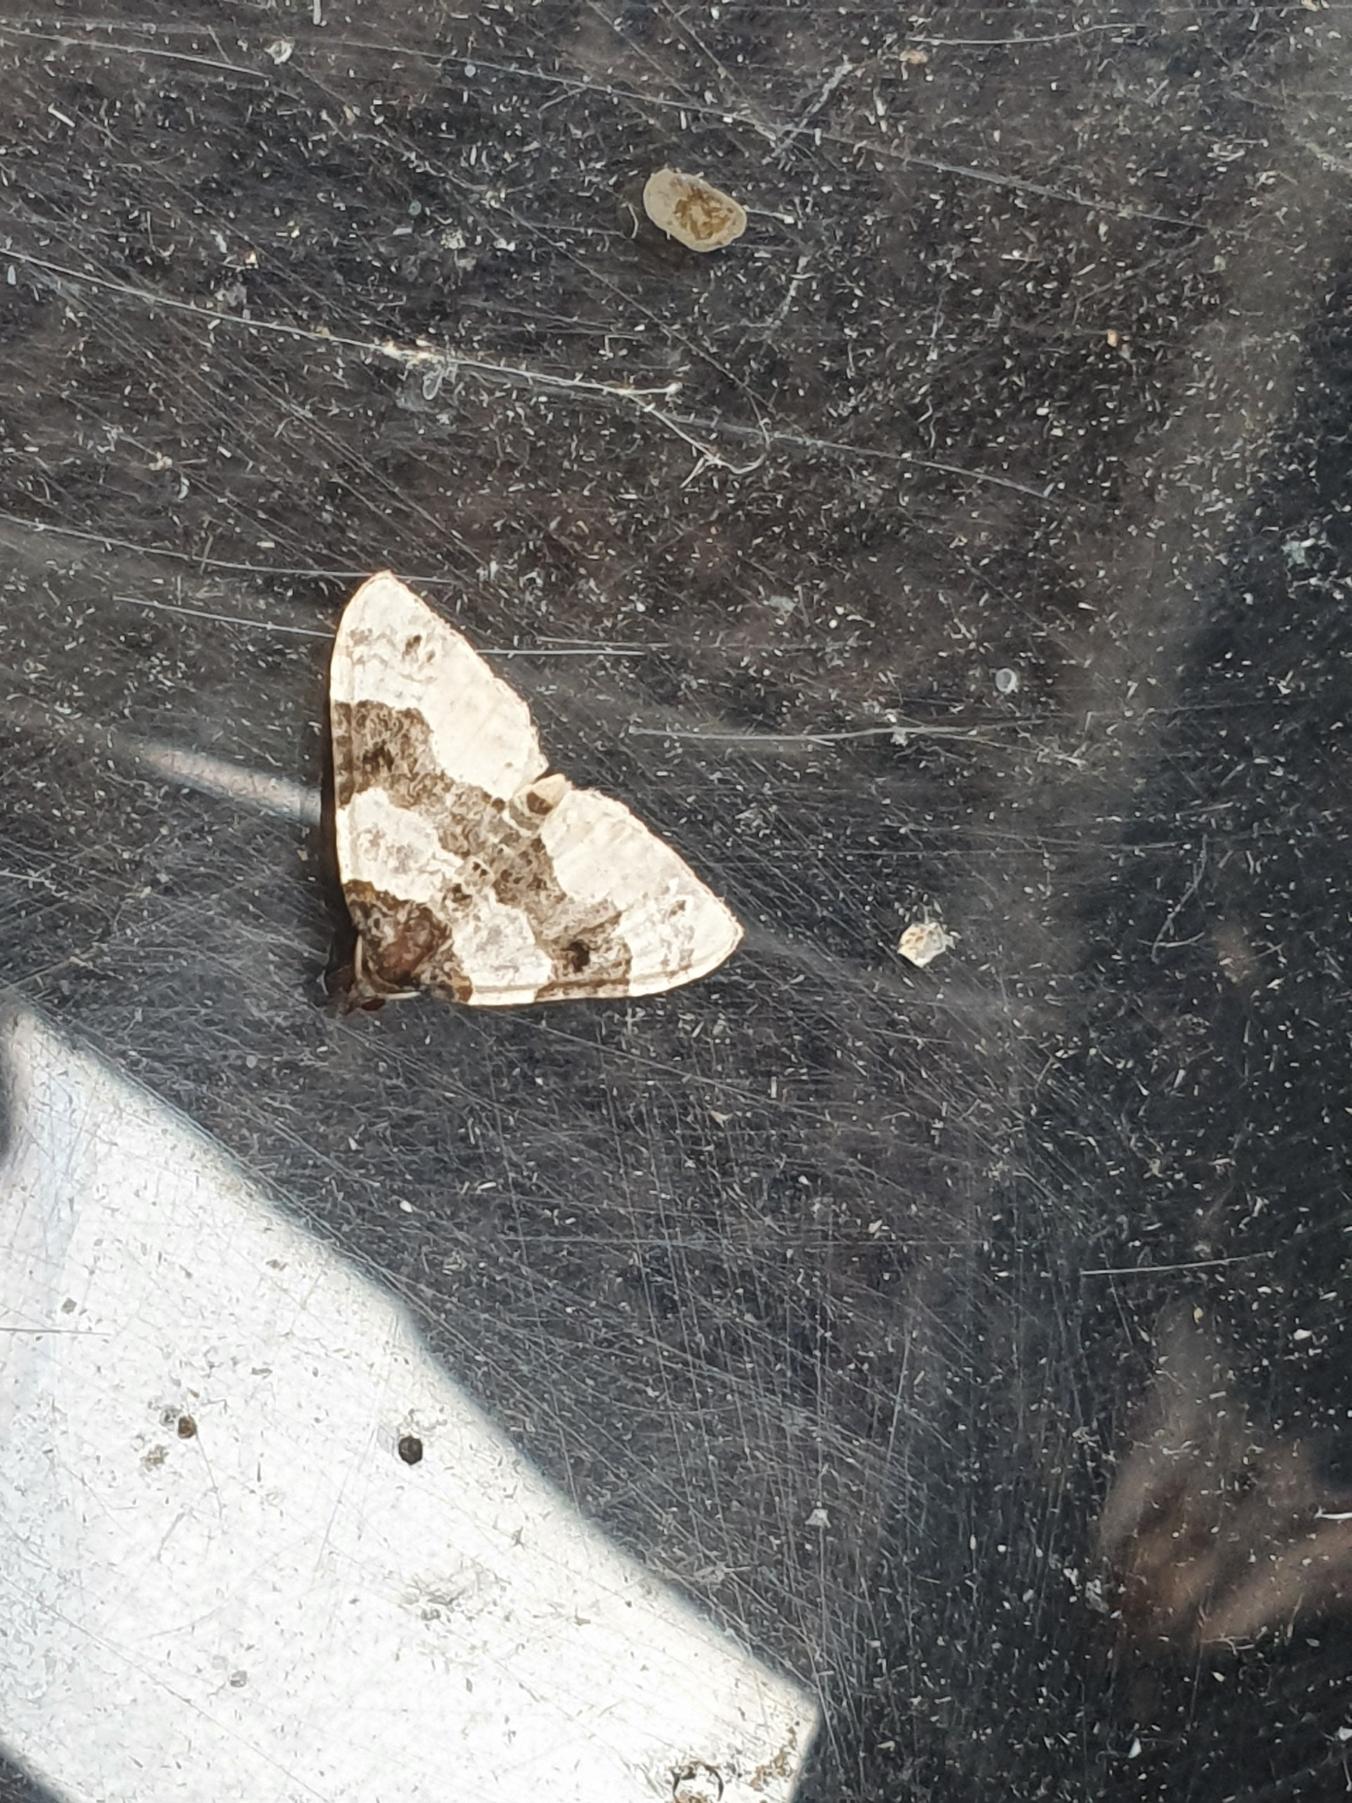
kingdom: Animalia
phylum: Arthropoda
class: Insecta
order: Lepidoptera
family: Geometridae
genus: Cosmorhoe
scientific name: Cosmorhoe ocellata
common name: Snerre-bladmåler
